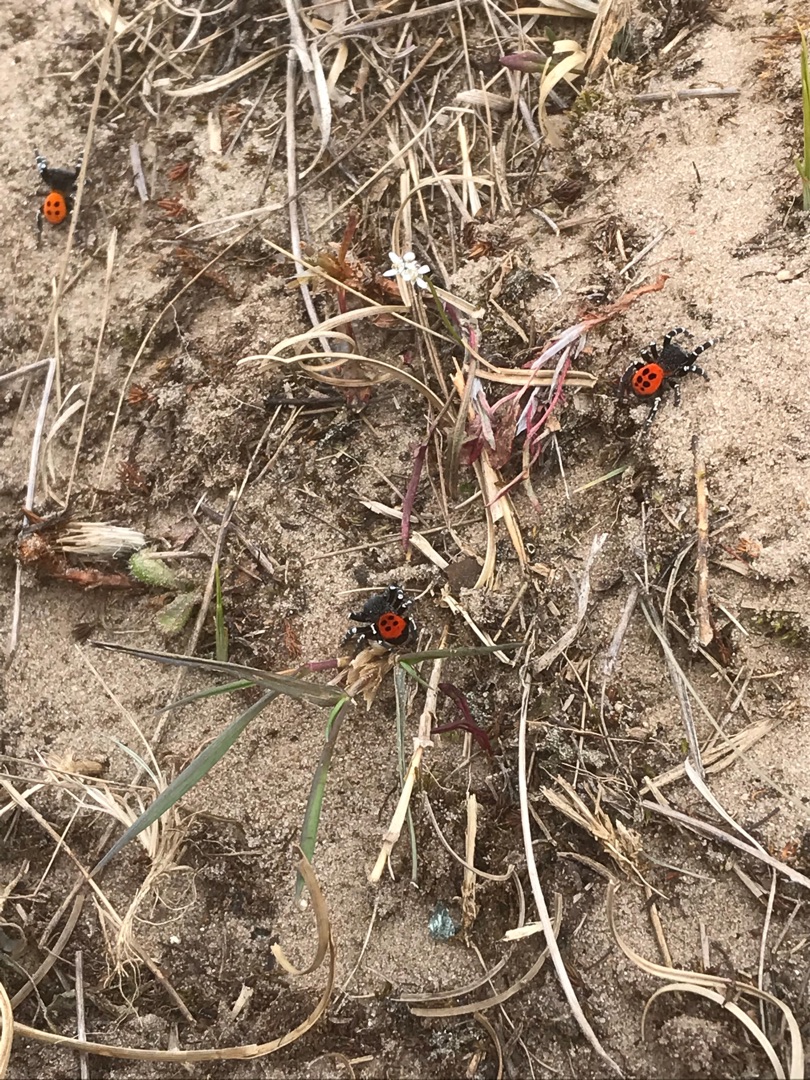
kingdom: Animalia
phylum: Arthropoda
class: Arachnida
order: Araneae
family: Eresidae
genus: Eresus
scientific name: Eresus sandaliatus
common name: Mariehøneedderkop
